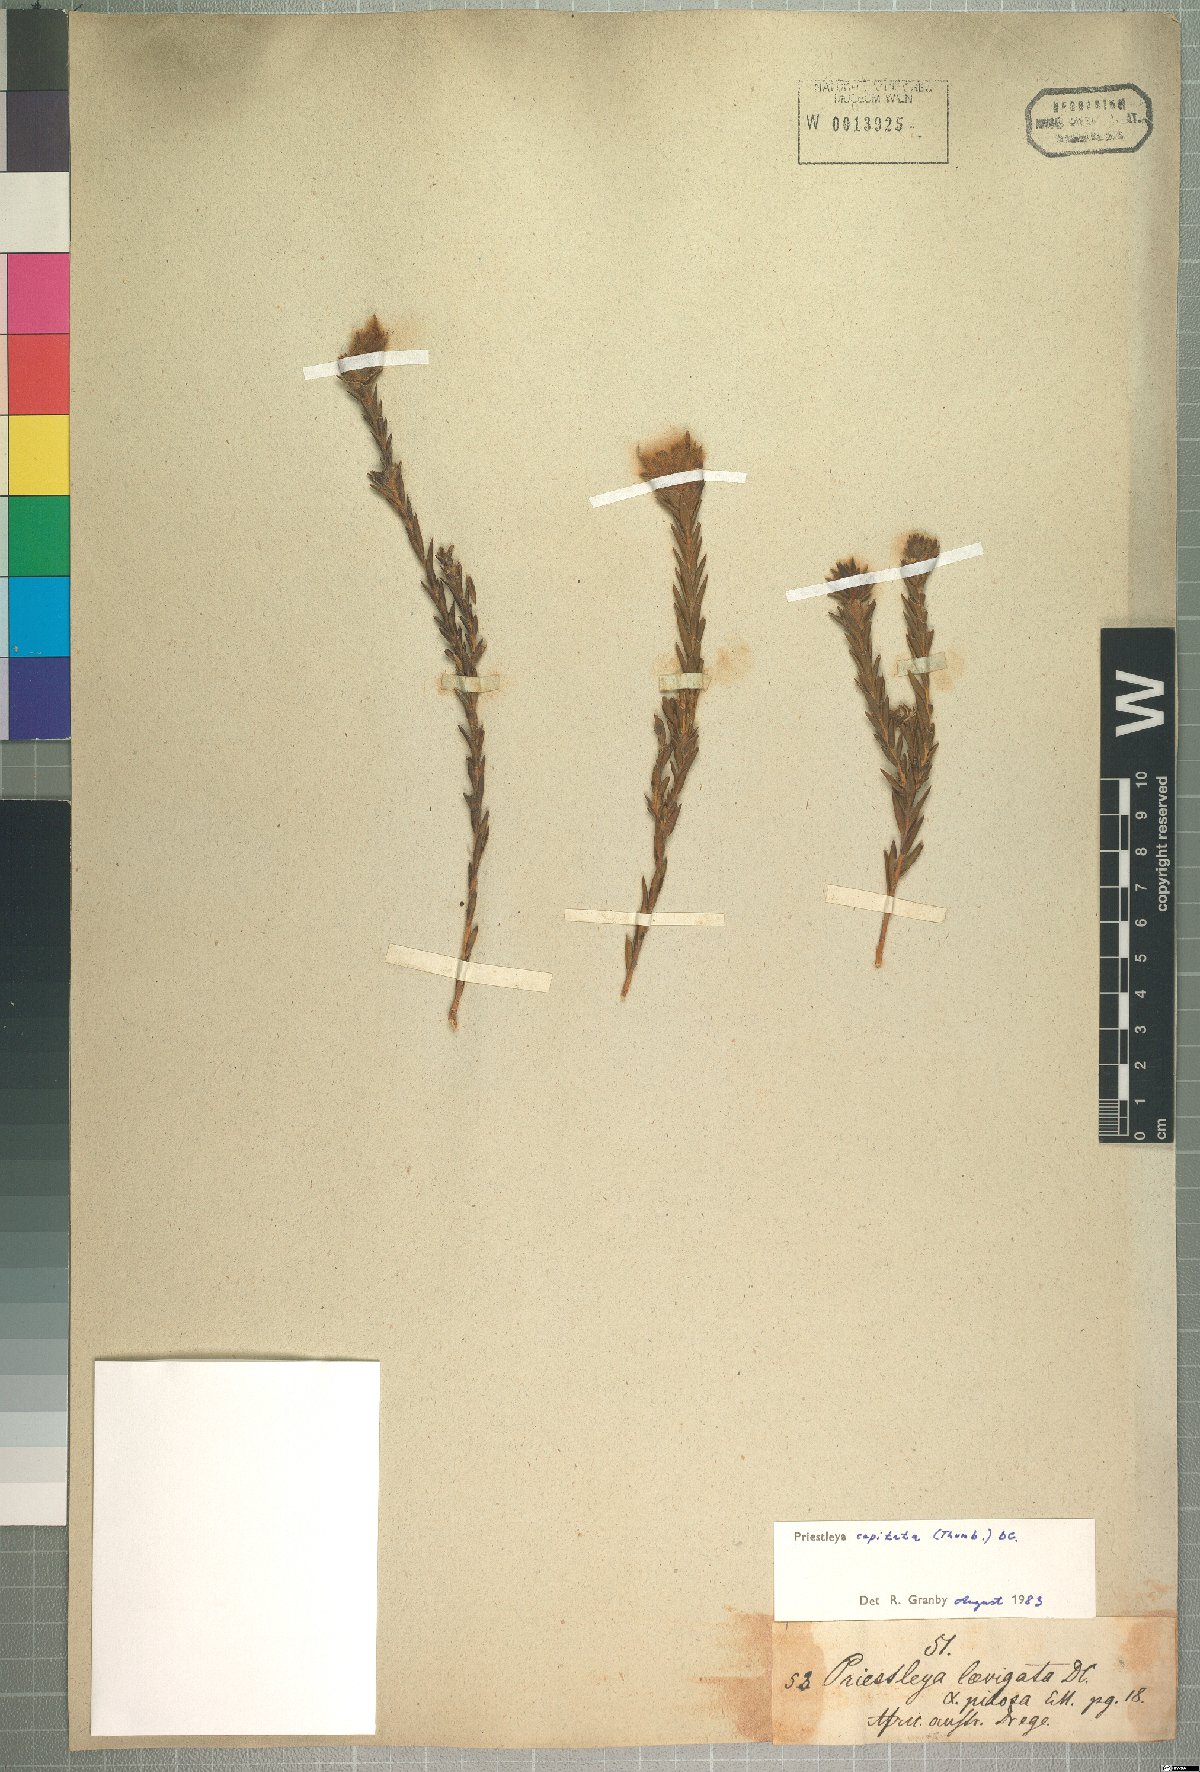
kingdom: Plantae
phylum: Tracheophyta
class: Magnoliopsida
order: Fabales
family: Fabaceae
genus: Liparia
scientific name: Liparia capitata
